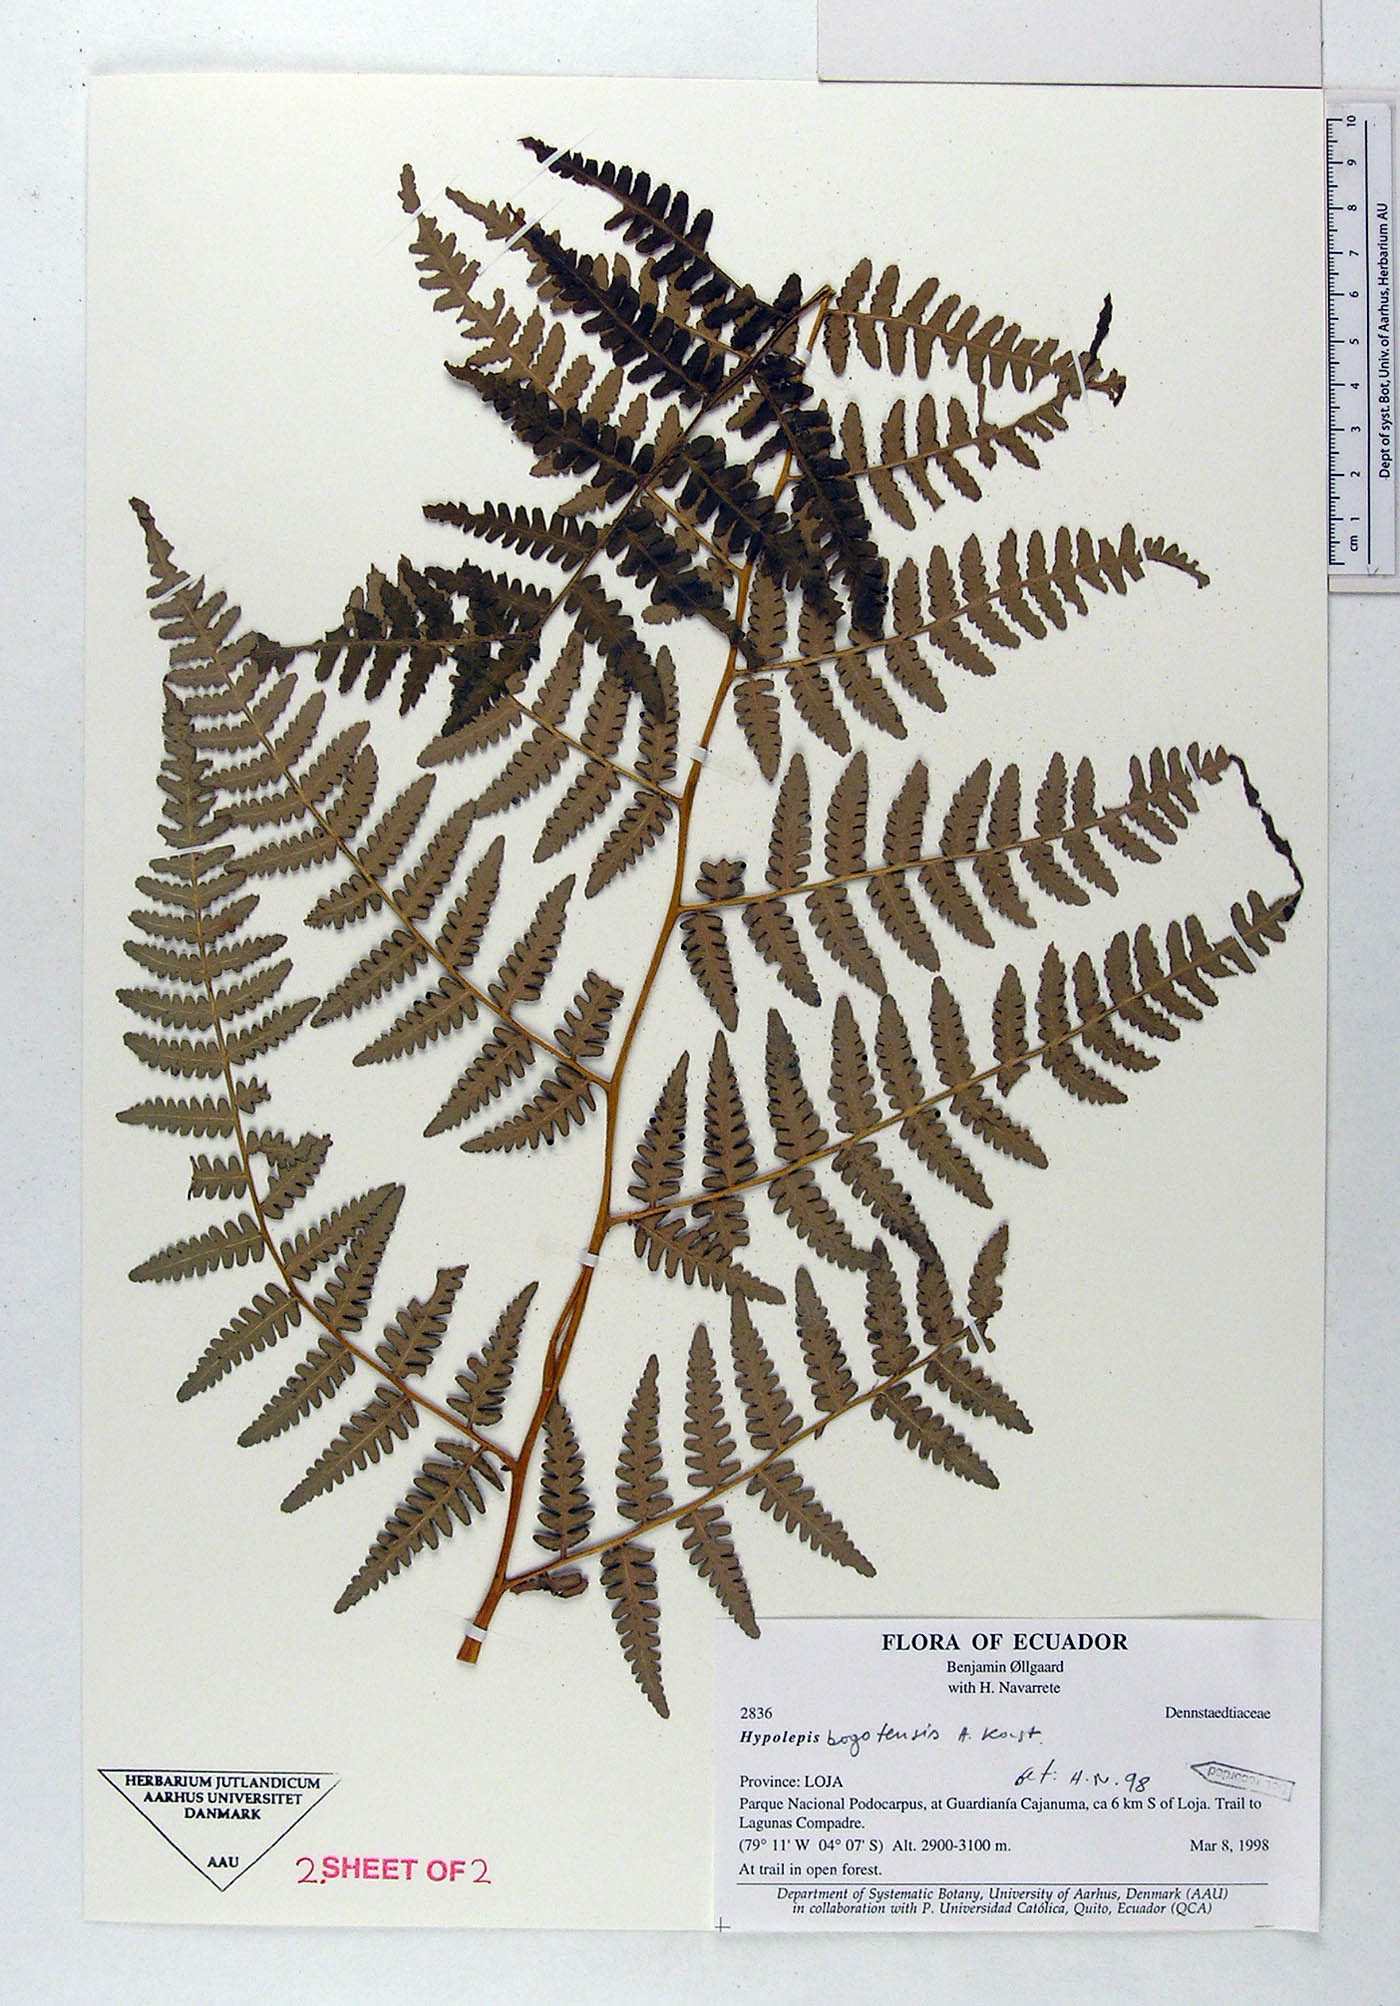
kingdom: Plantae
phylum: Tracheophyta
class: Polypodiopsida
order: Polypodiales
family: Dennstaedtiaceae
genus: Hypolepis
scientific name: Hypolepis bogotensis
